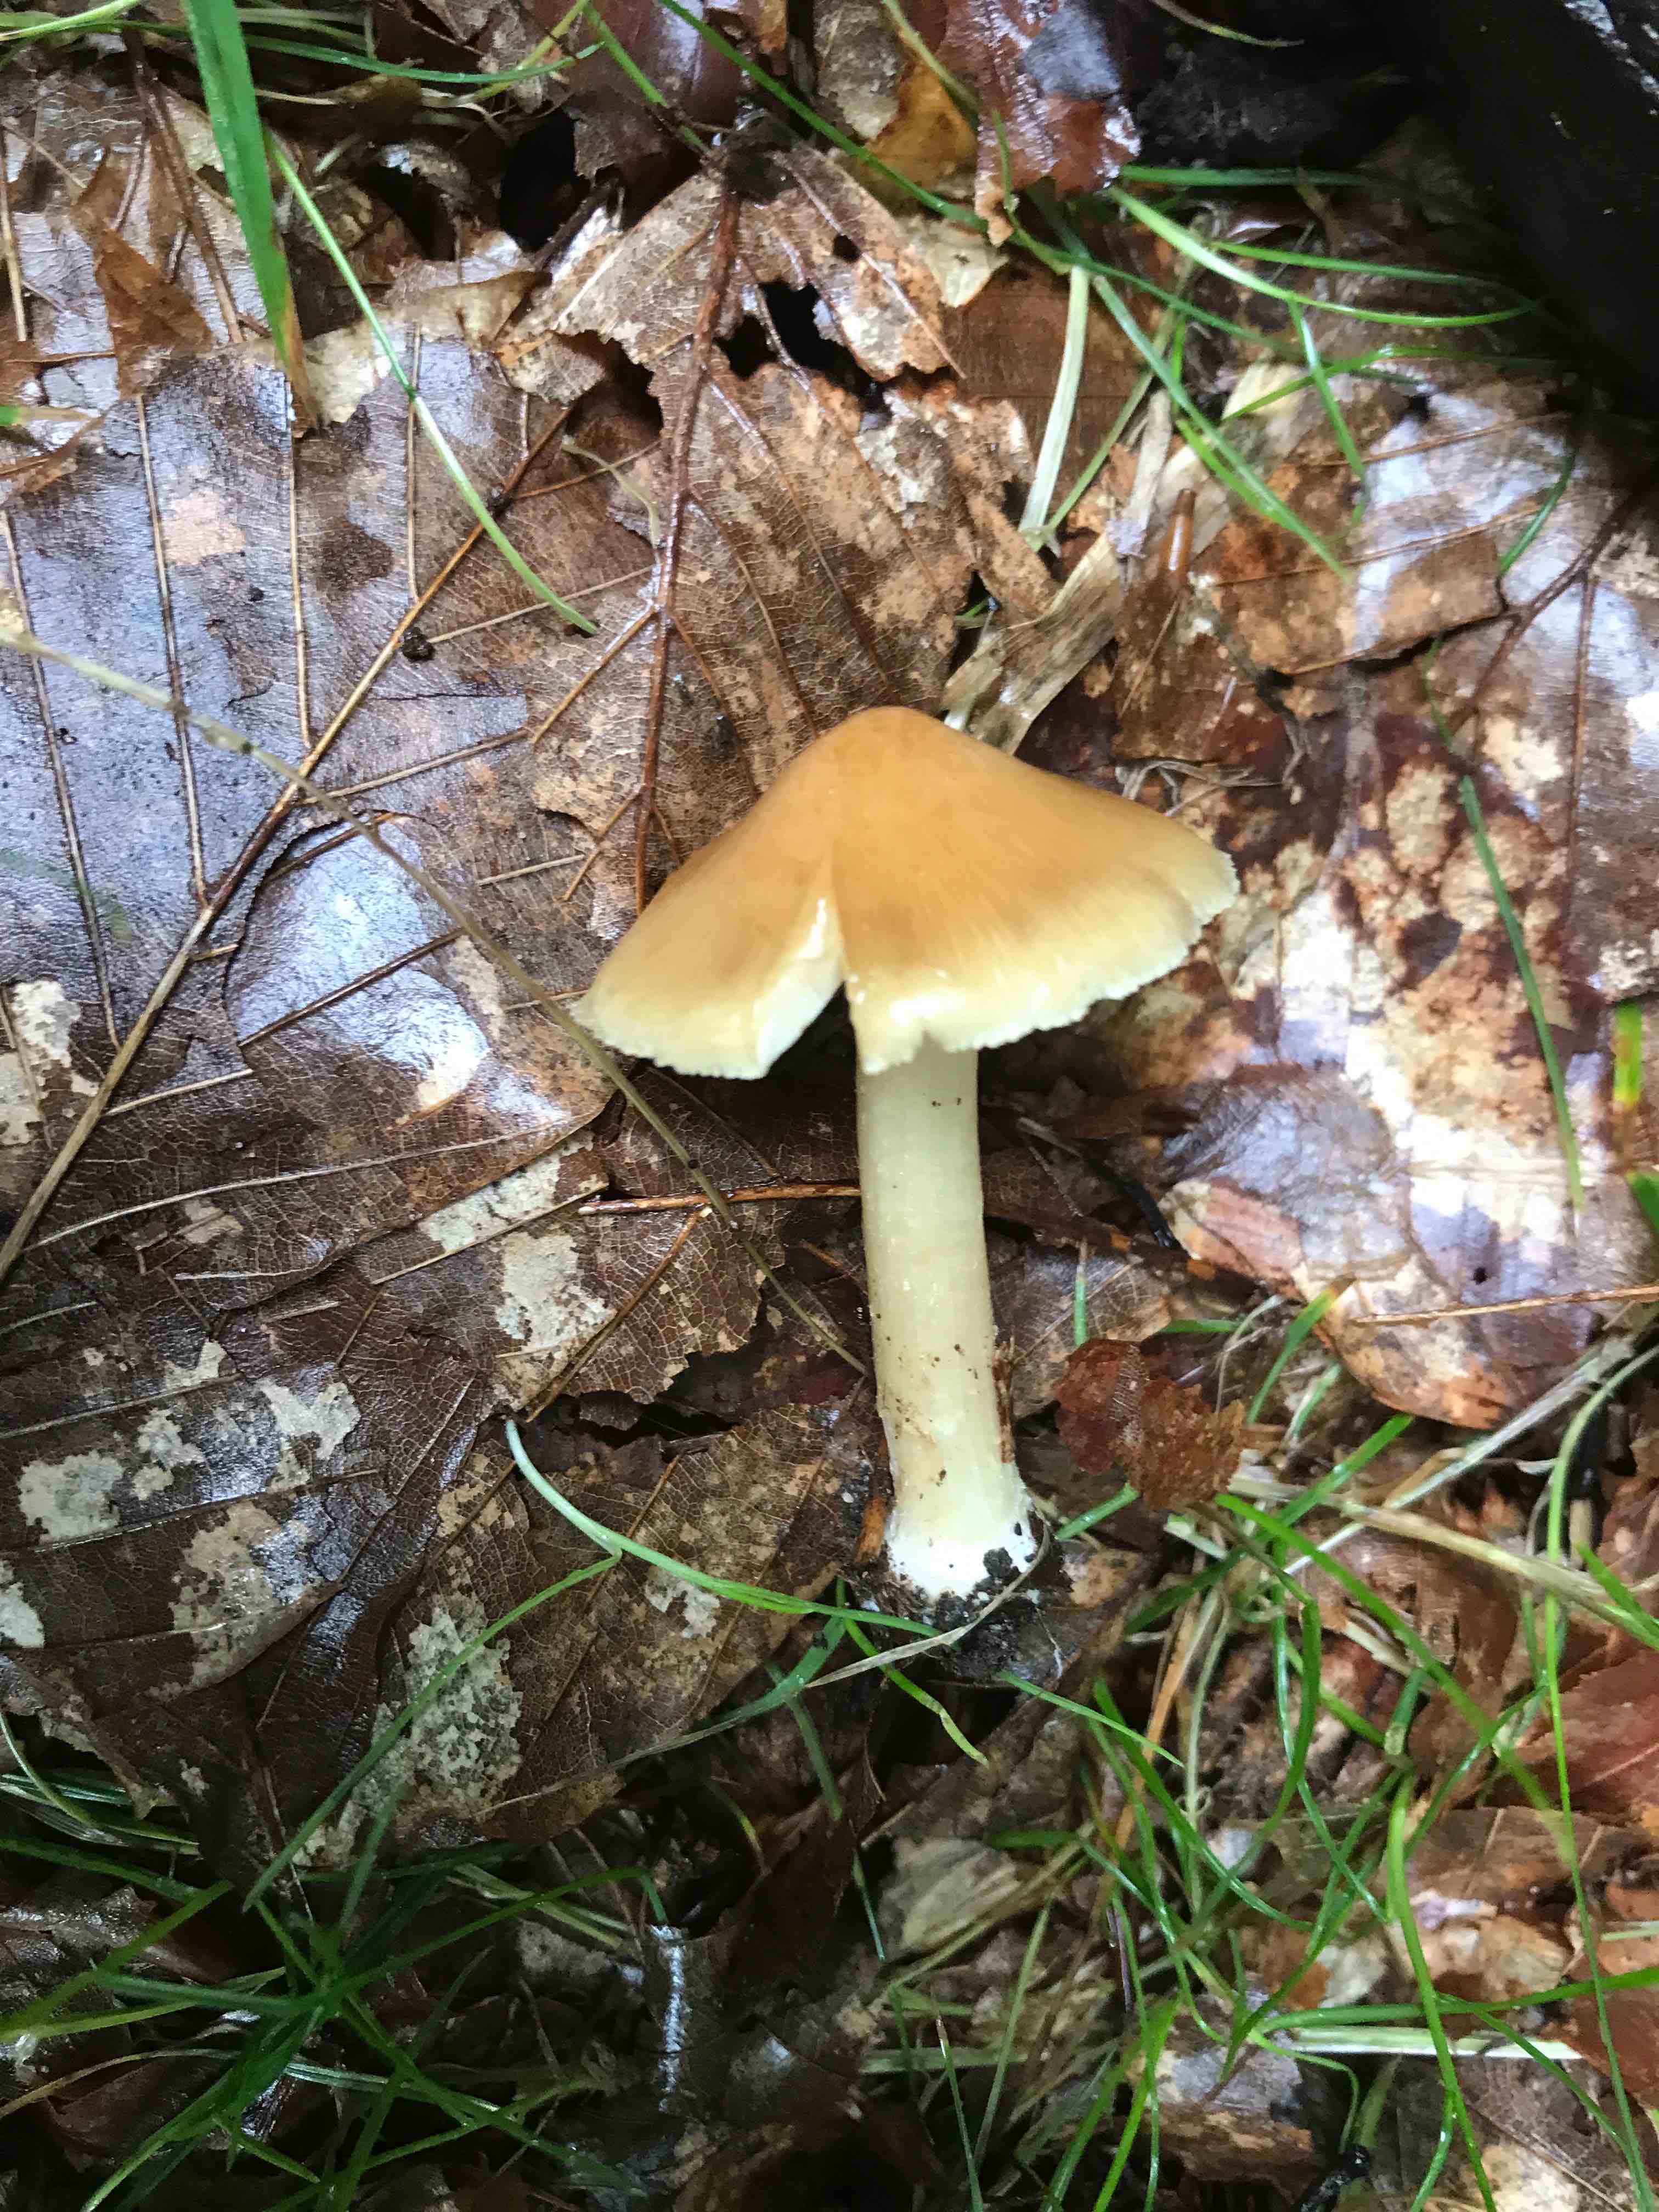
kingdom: Fungi
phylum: Basidiomycota
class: Agaricomycetes
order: Agaricales
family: Inocybaceae
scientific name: Inocybaceae
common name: trævlhatfamilien
